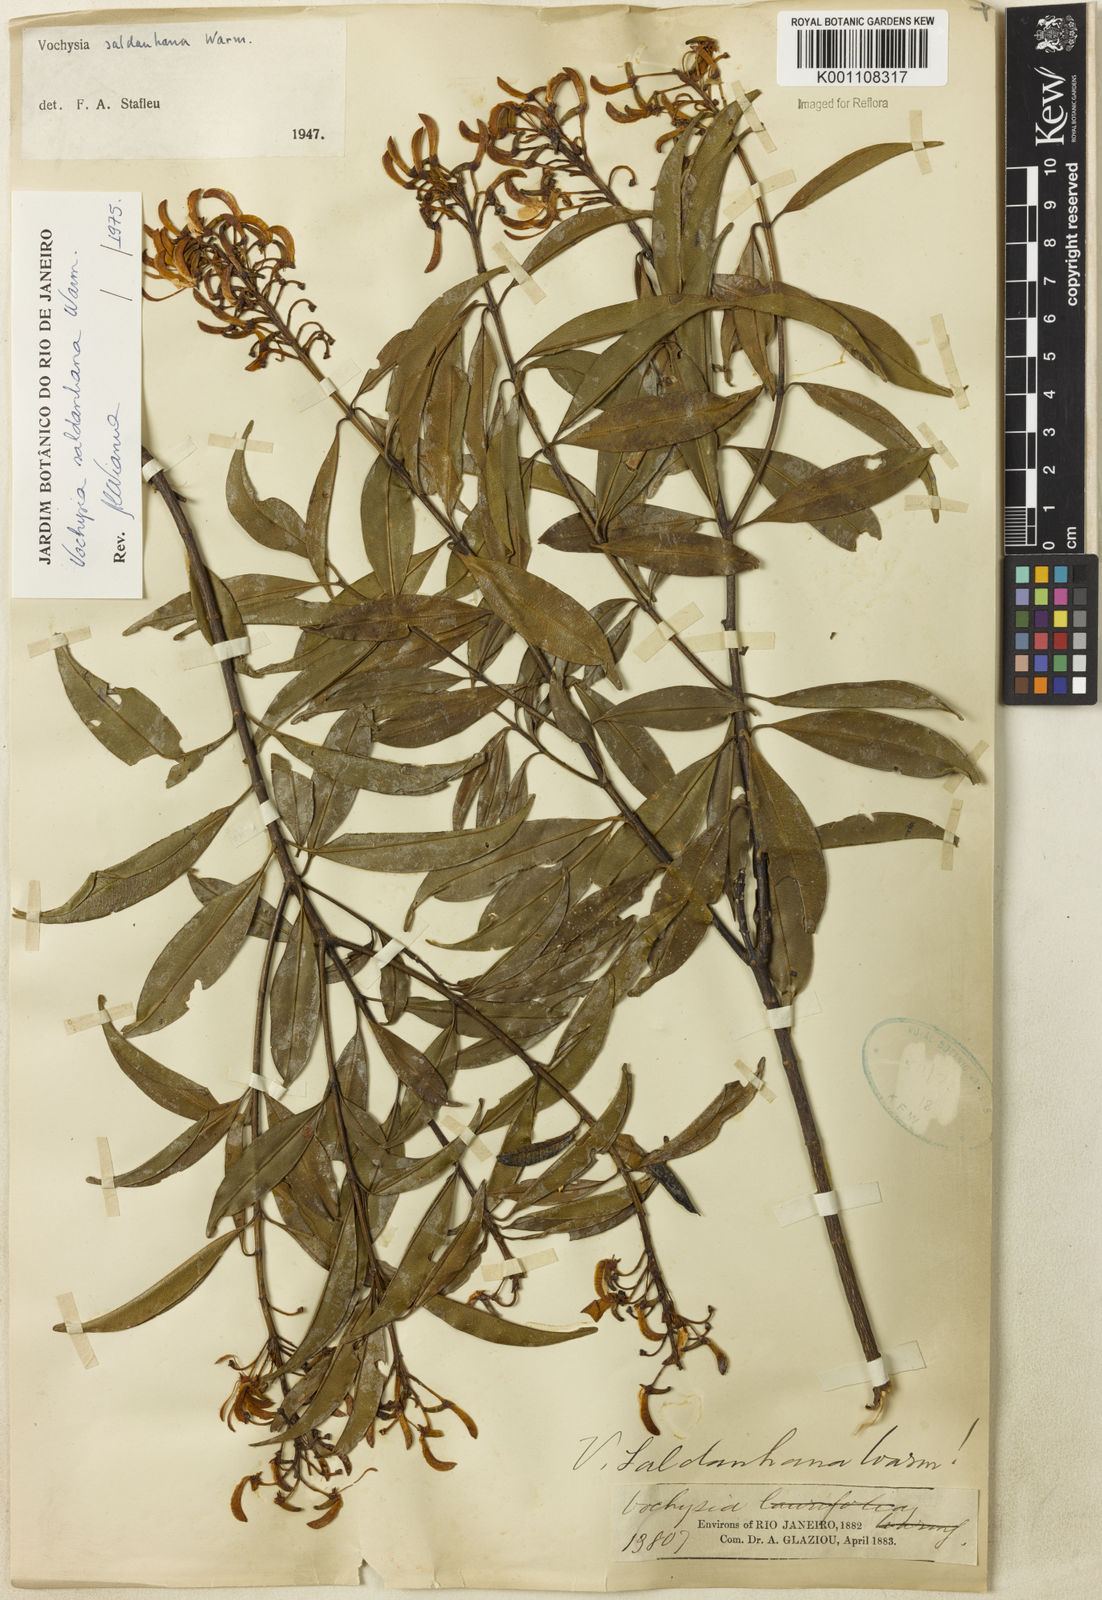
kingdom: Plantae
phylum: Tracheophyta
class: Magnoliopsida
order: Myrtales
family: Vochysiaceae
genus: Vochysia
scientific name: Vochysia saldanhana
